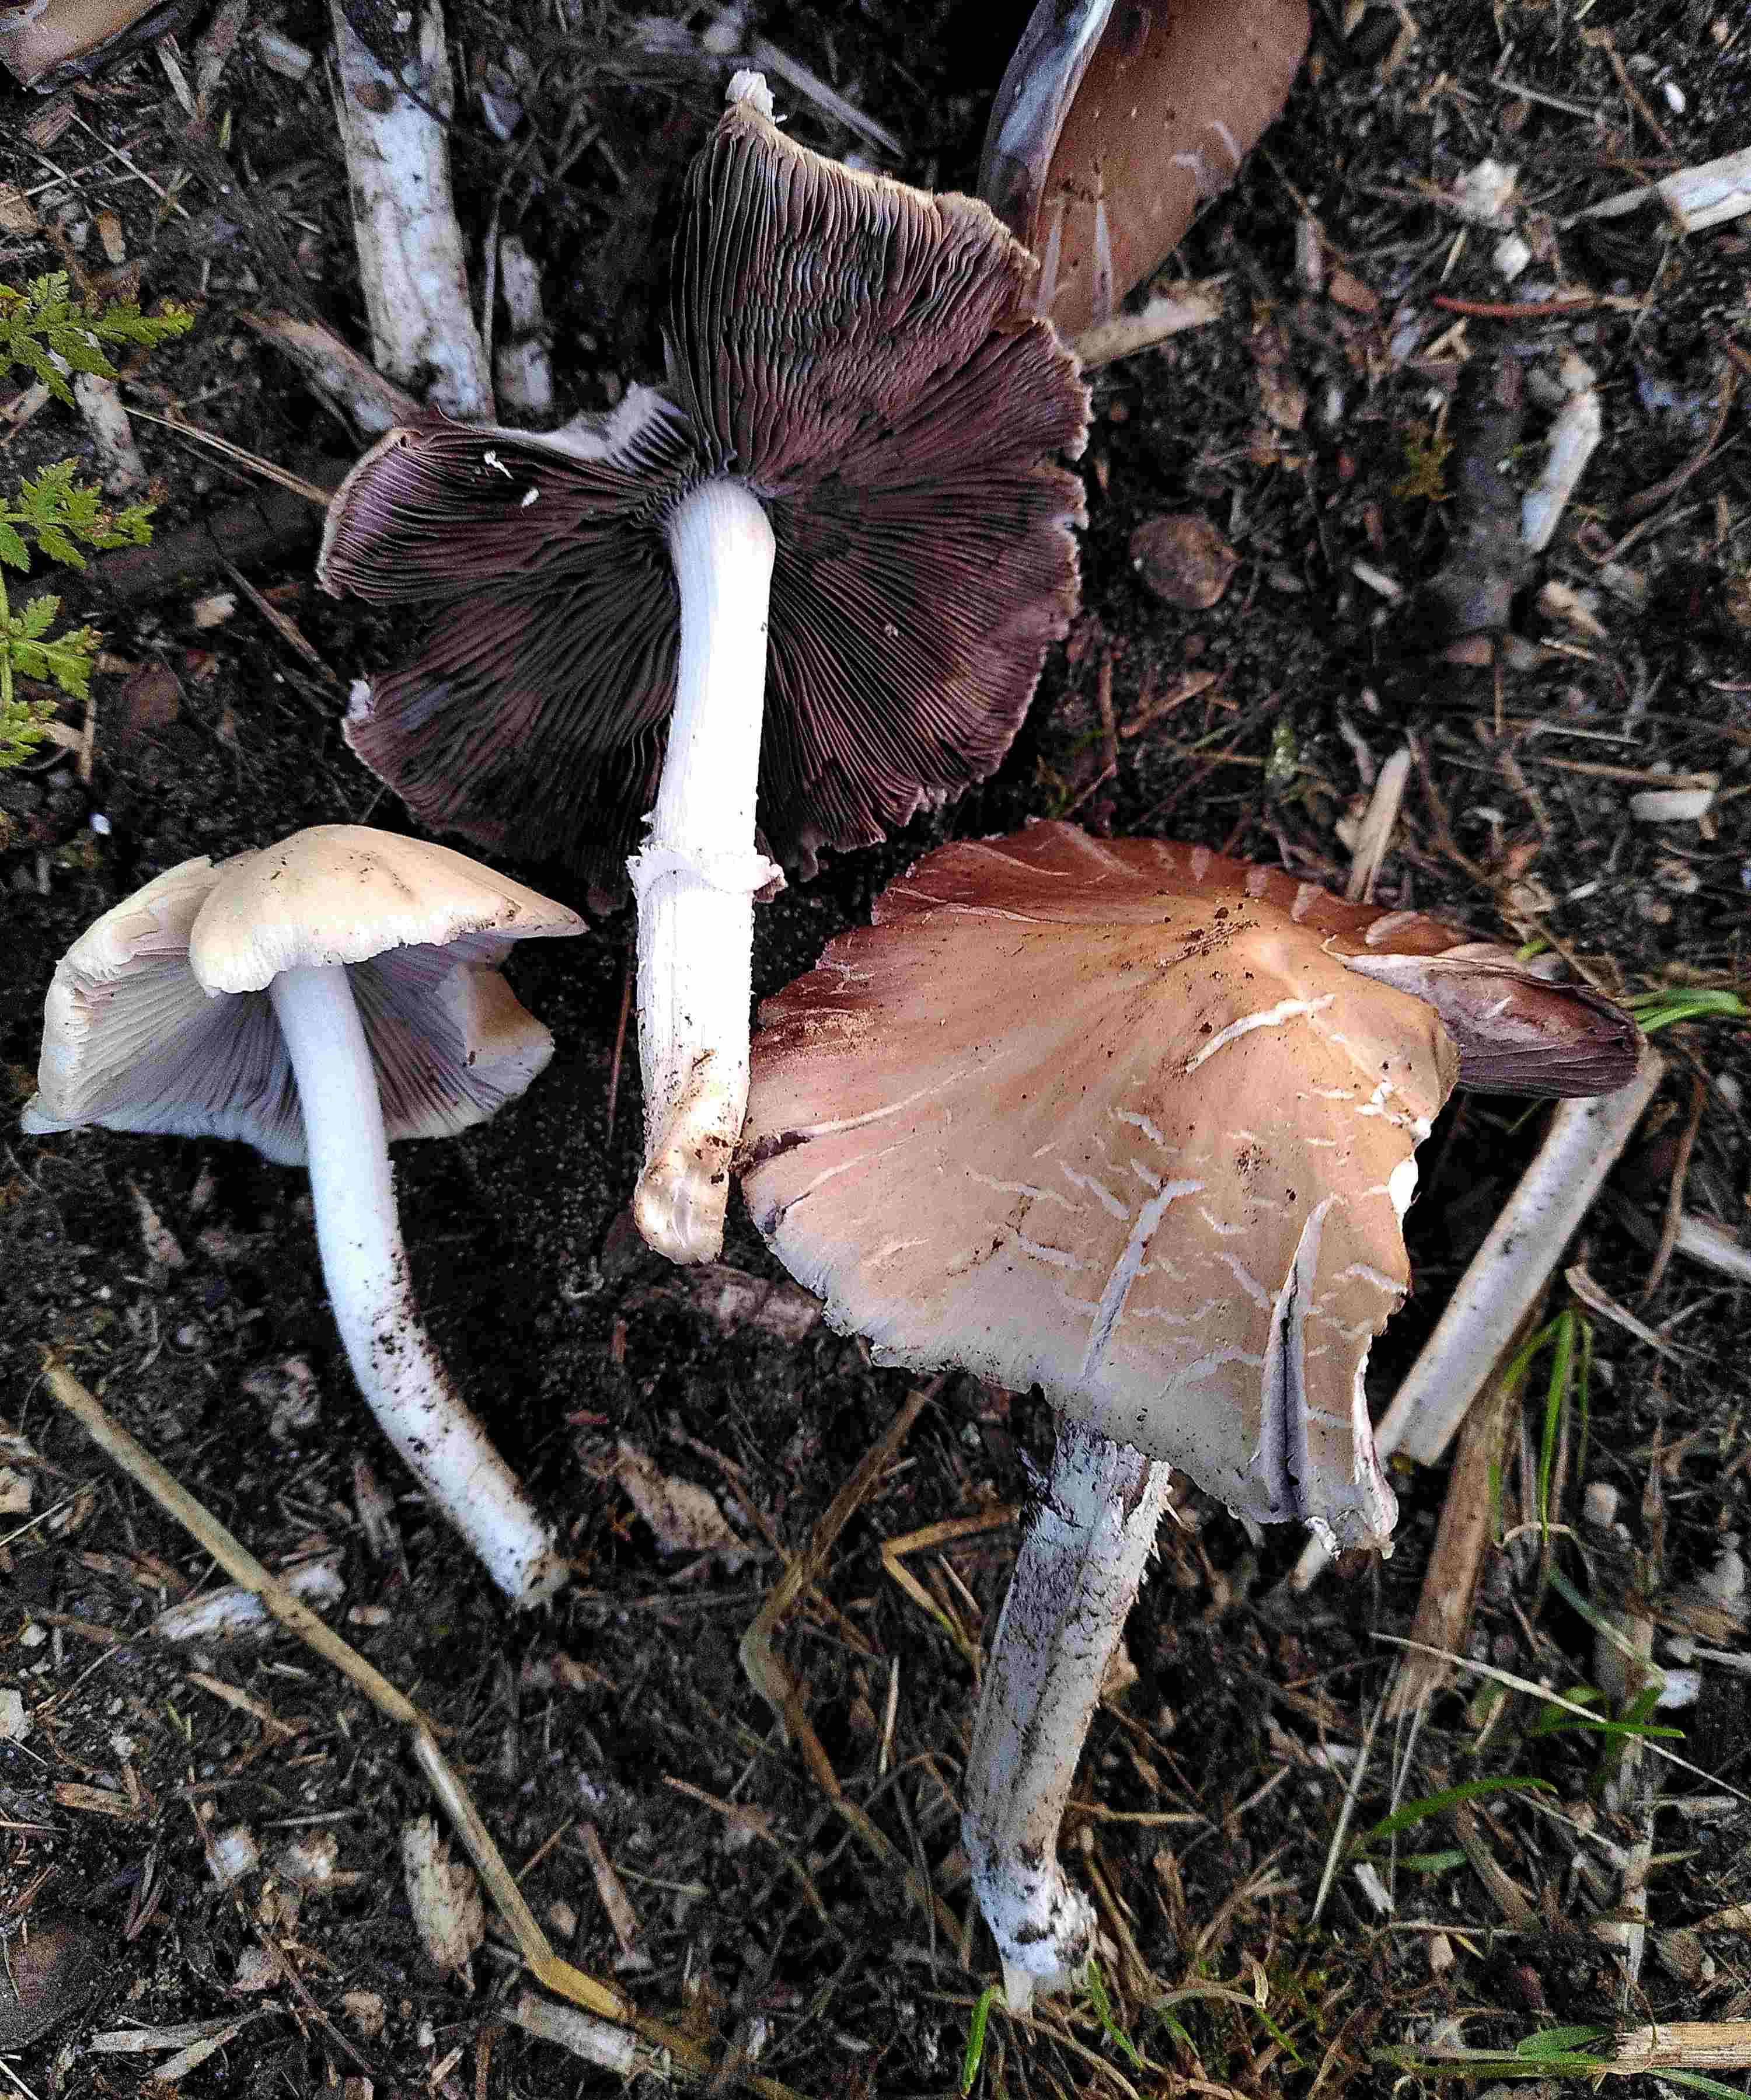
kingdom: Fungi
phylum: Basidiomycota
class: Agaricomycetes
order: Agaricales
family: Psathyrellaceae
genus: Candolleomyces
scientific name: Candolleomyces candolleanus
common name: Candolles mørkhat
